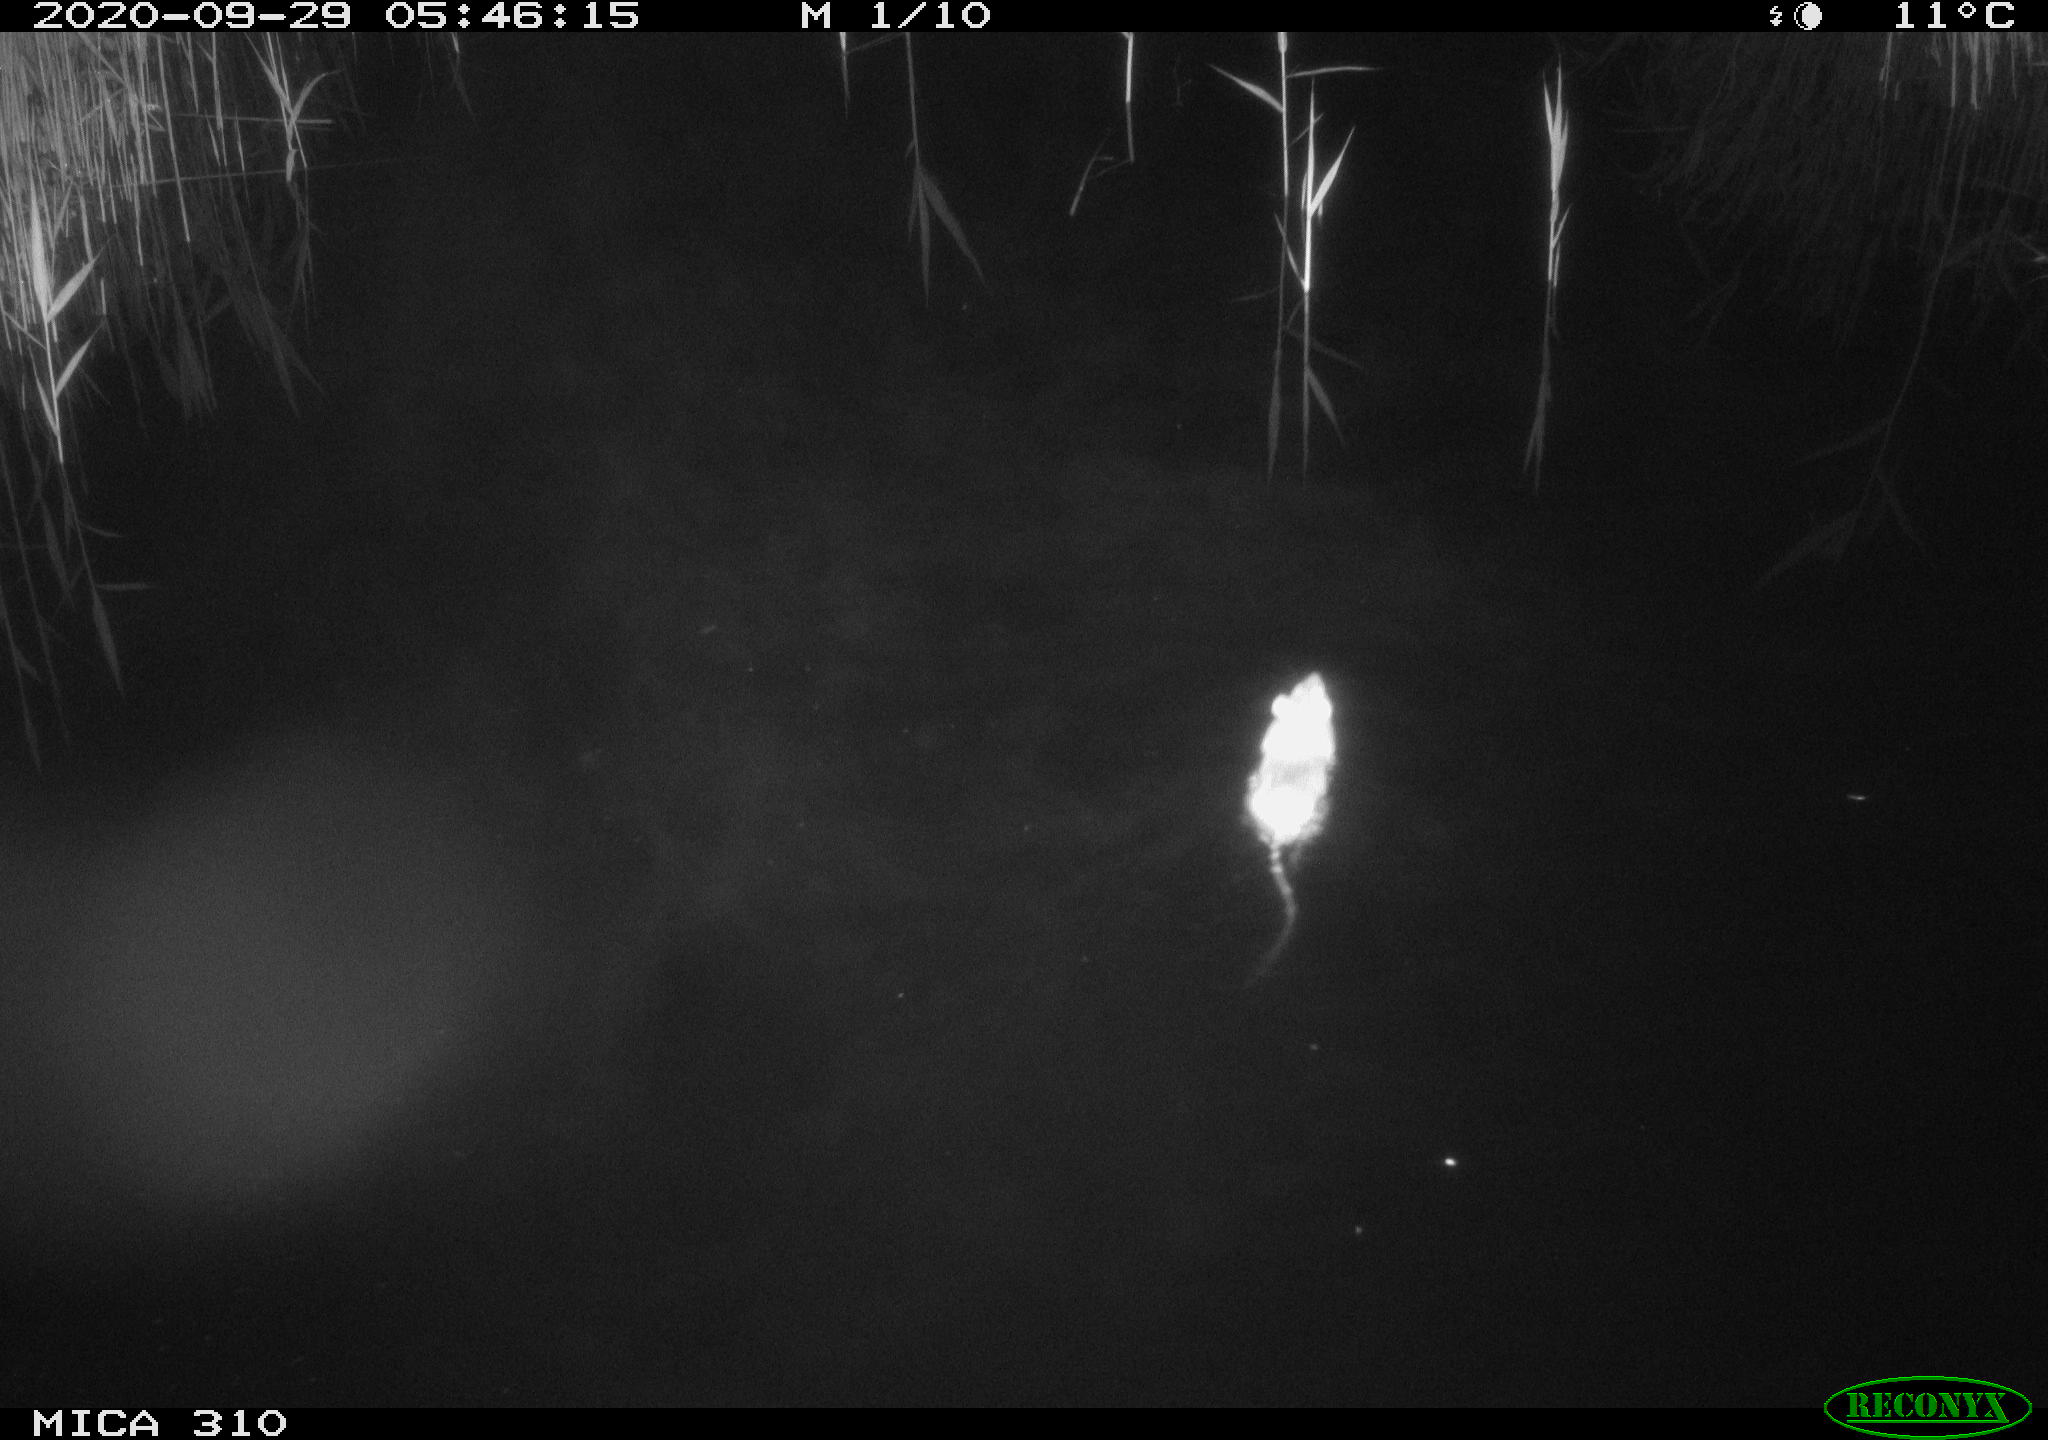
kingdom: Animalia
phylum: Chordata
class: Mammalia
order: Rodentia
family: Muridae
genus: Rattus
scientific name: Rattus norvegicus
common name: Brown rat
